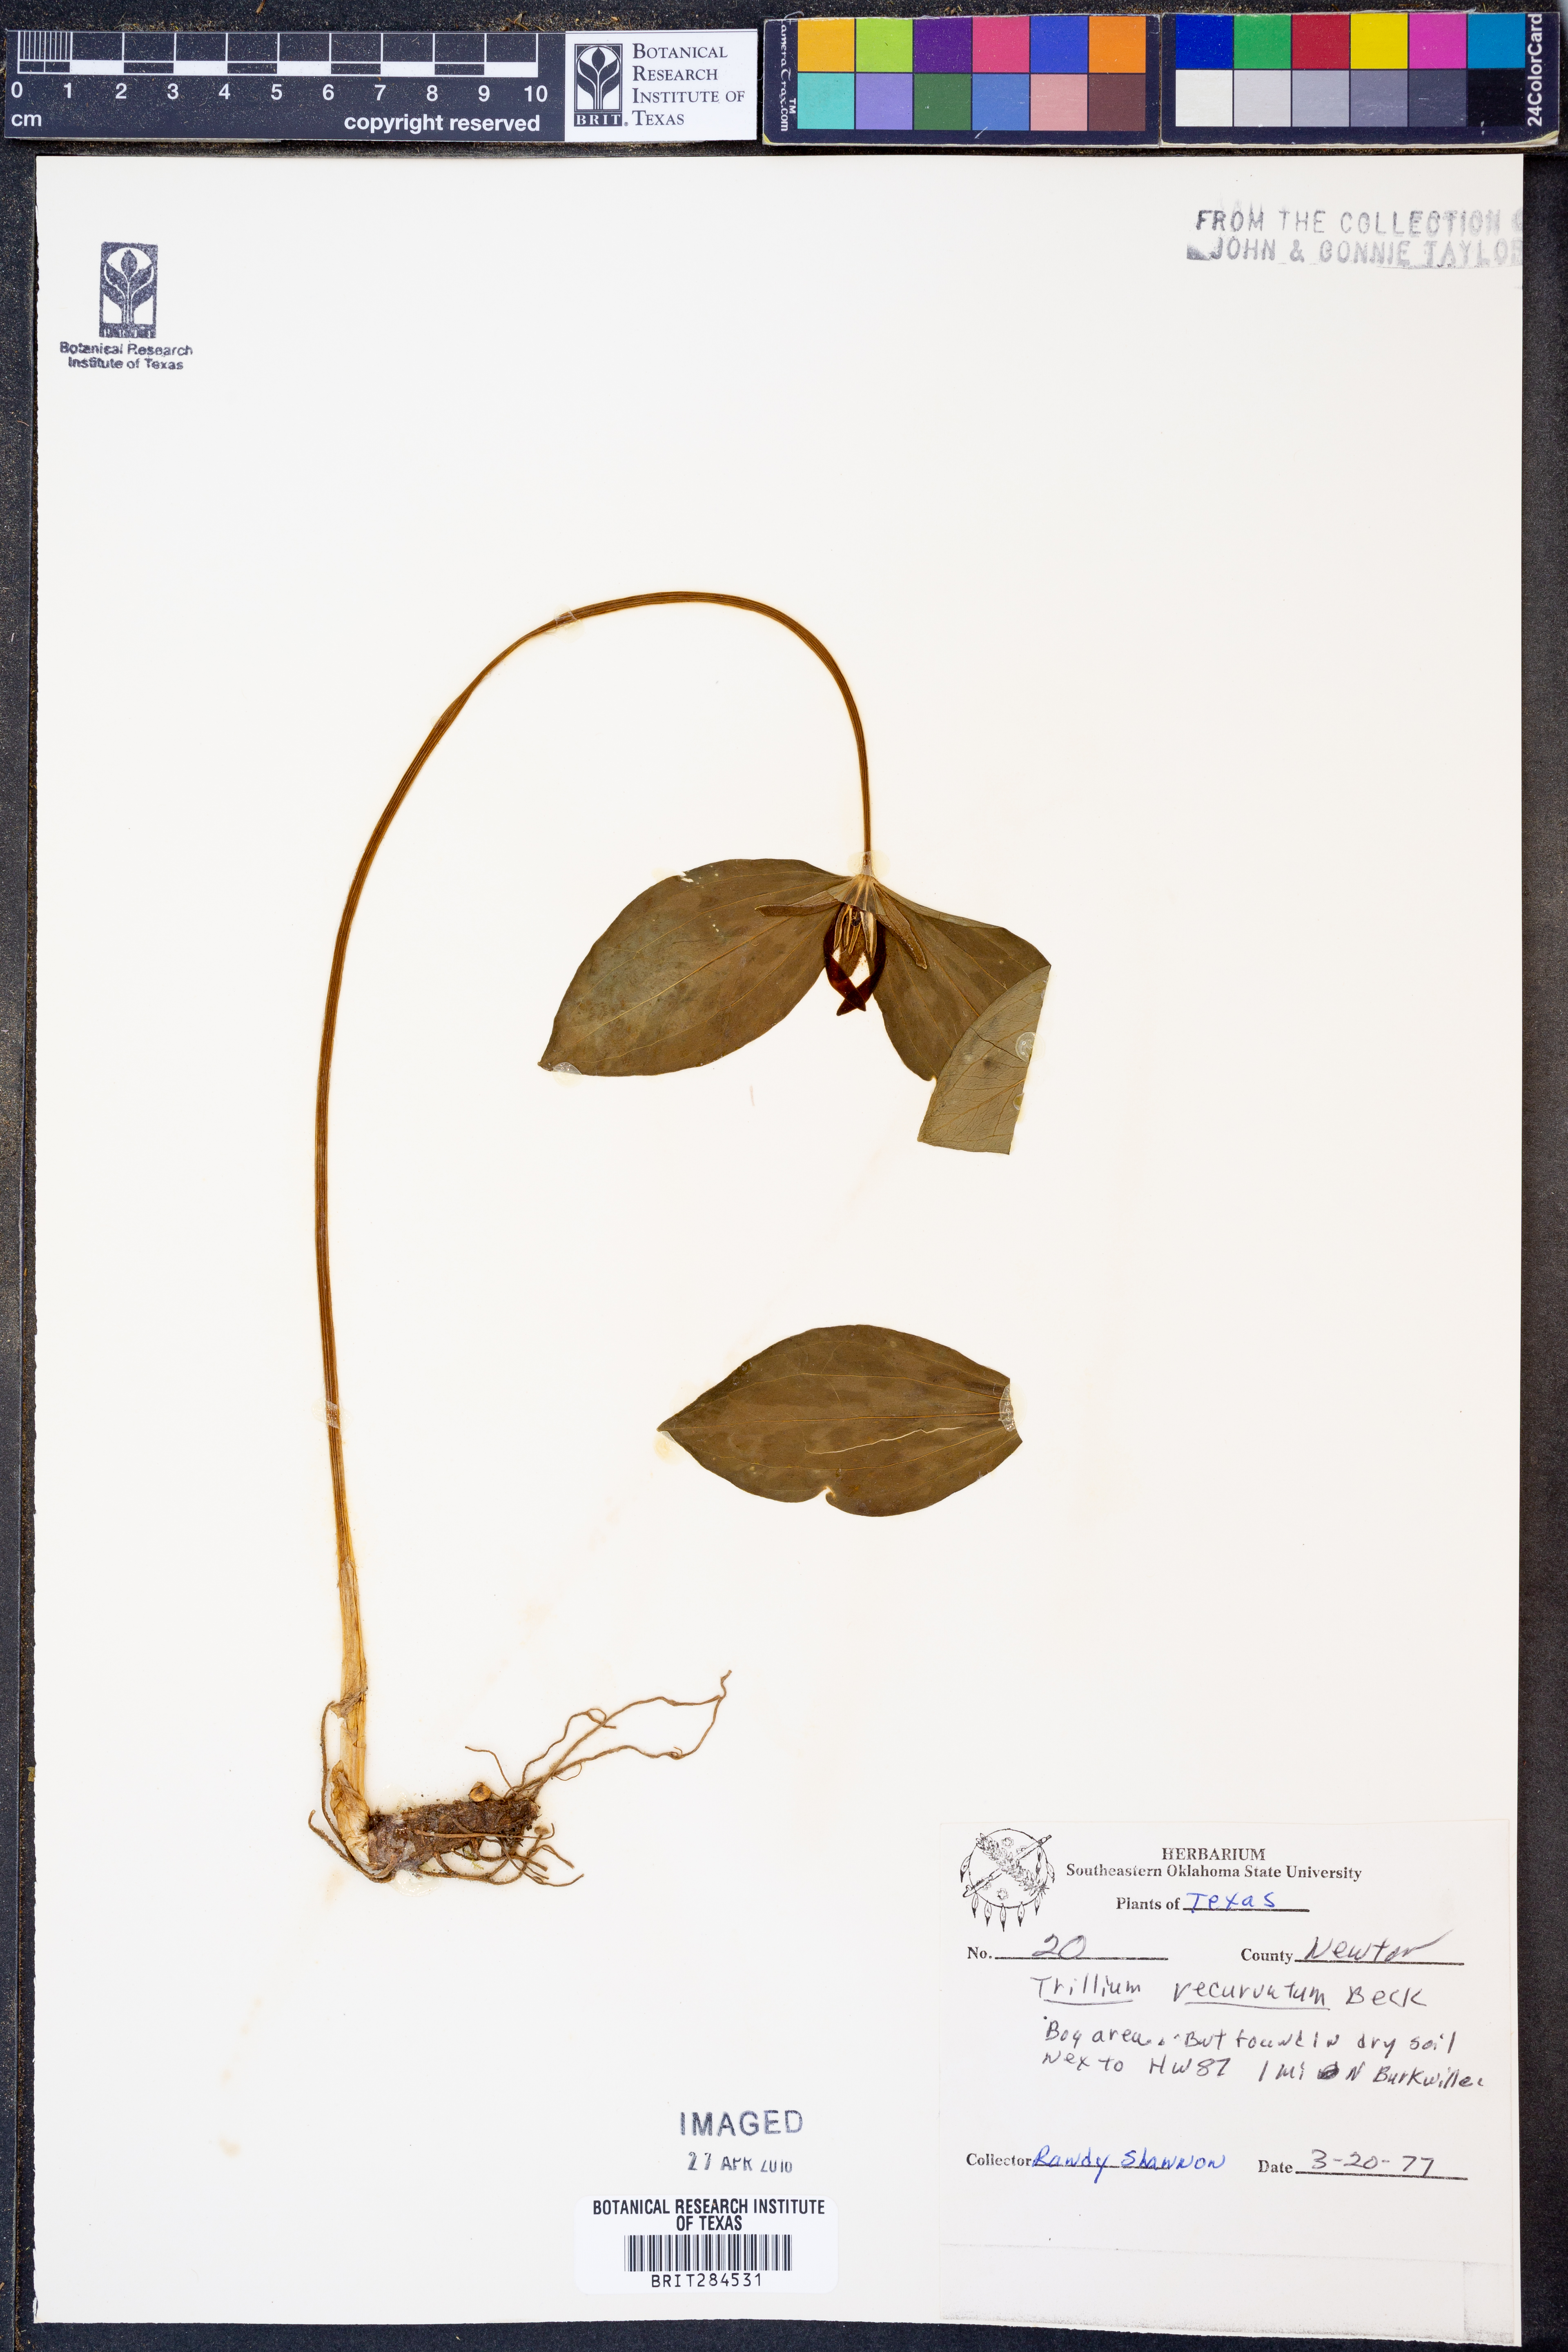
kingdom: Plantae
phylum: Tracheophyta
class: Liliopsida
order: Liliales
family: Melanthiaceae
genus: Trillium
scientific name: Trillium recurvatum
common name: Bloody butcher
